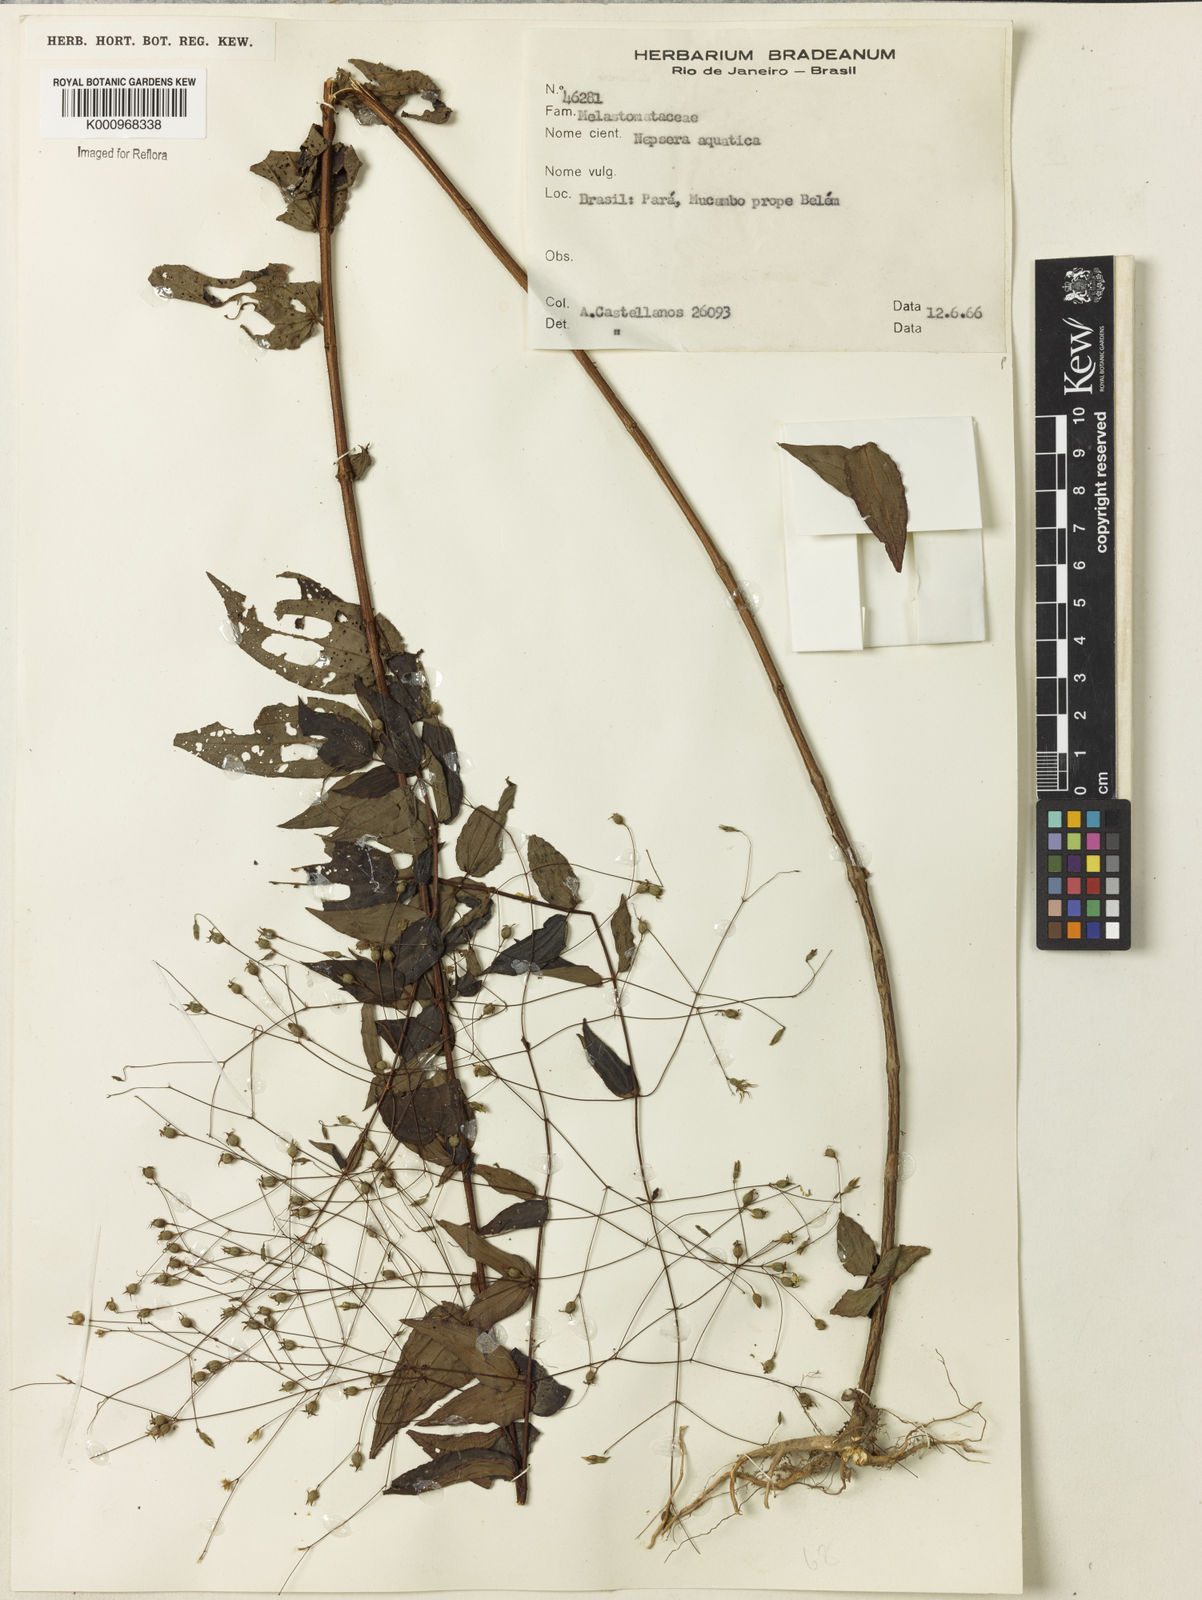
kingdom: Plantae
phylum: Tracheophyta
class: Magnoliopsida
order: Myrtales
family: Melastomataceae
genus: Nepsera
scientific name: Nepsera aquatica
